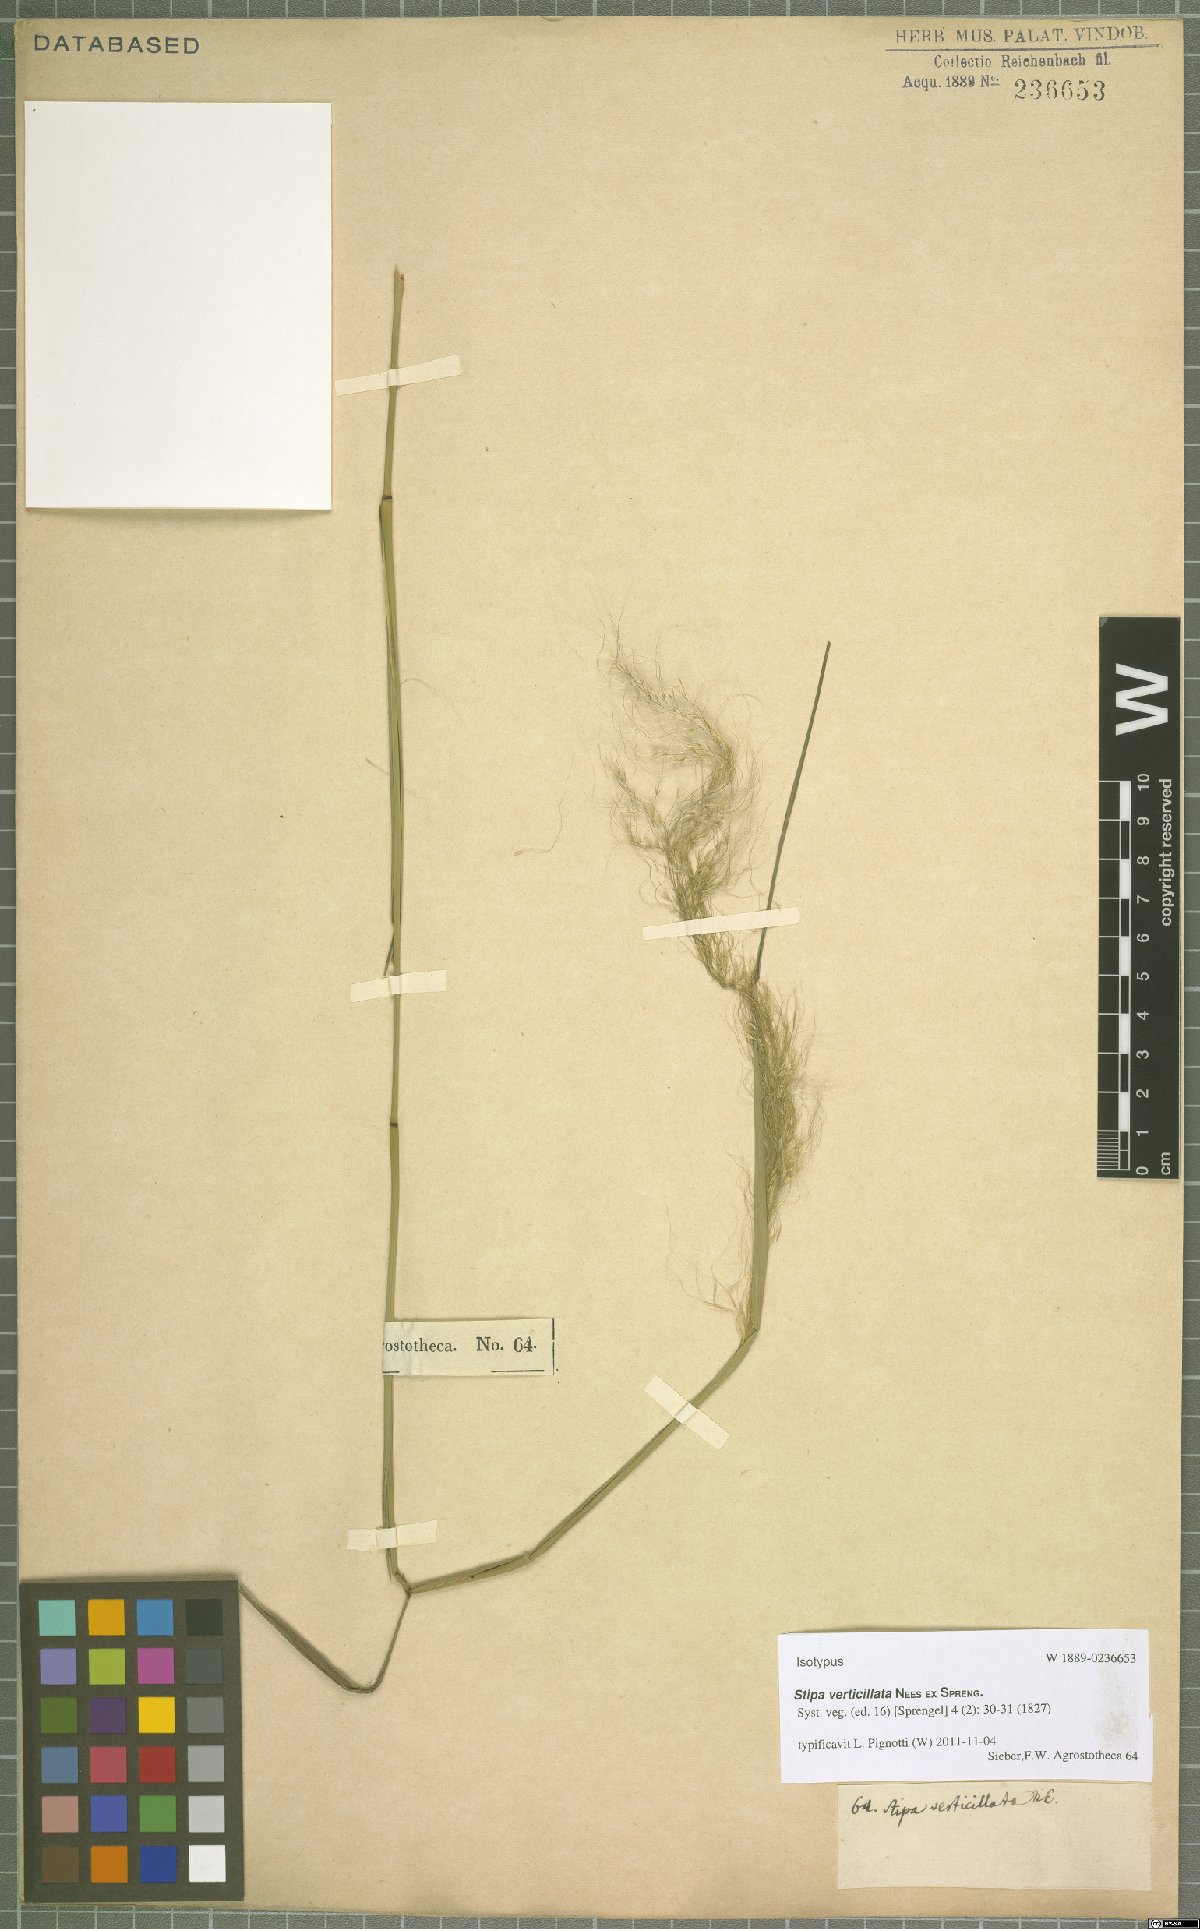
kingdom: Plantae
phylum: Tracheophyta
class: Liliopsida
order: Poales
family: Poaceae
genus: Austrostipa
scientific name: Austrostipa verticillata
